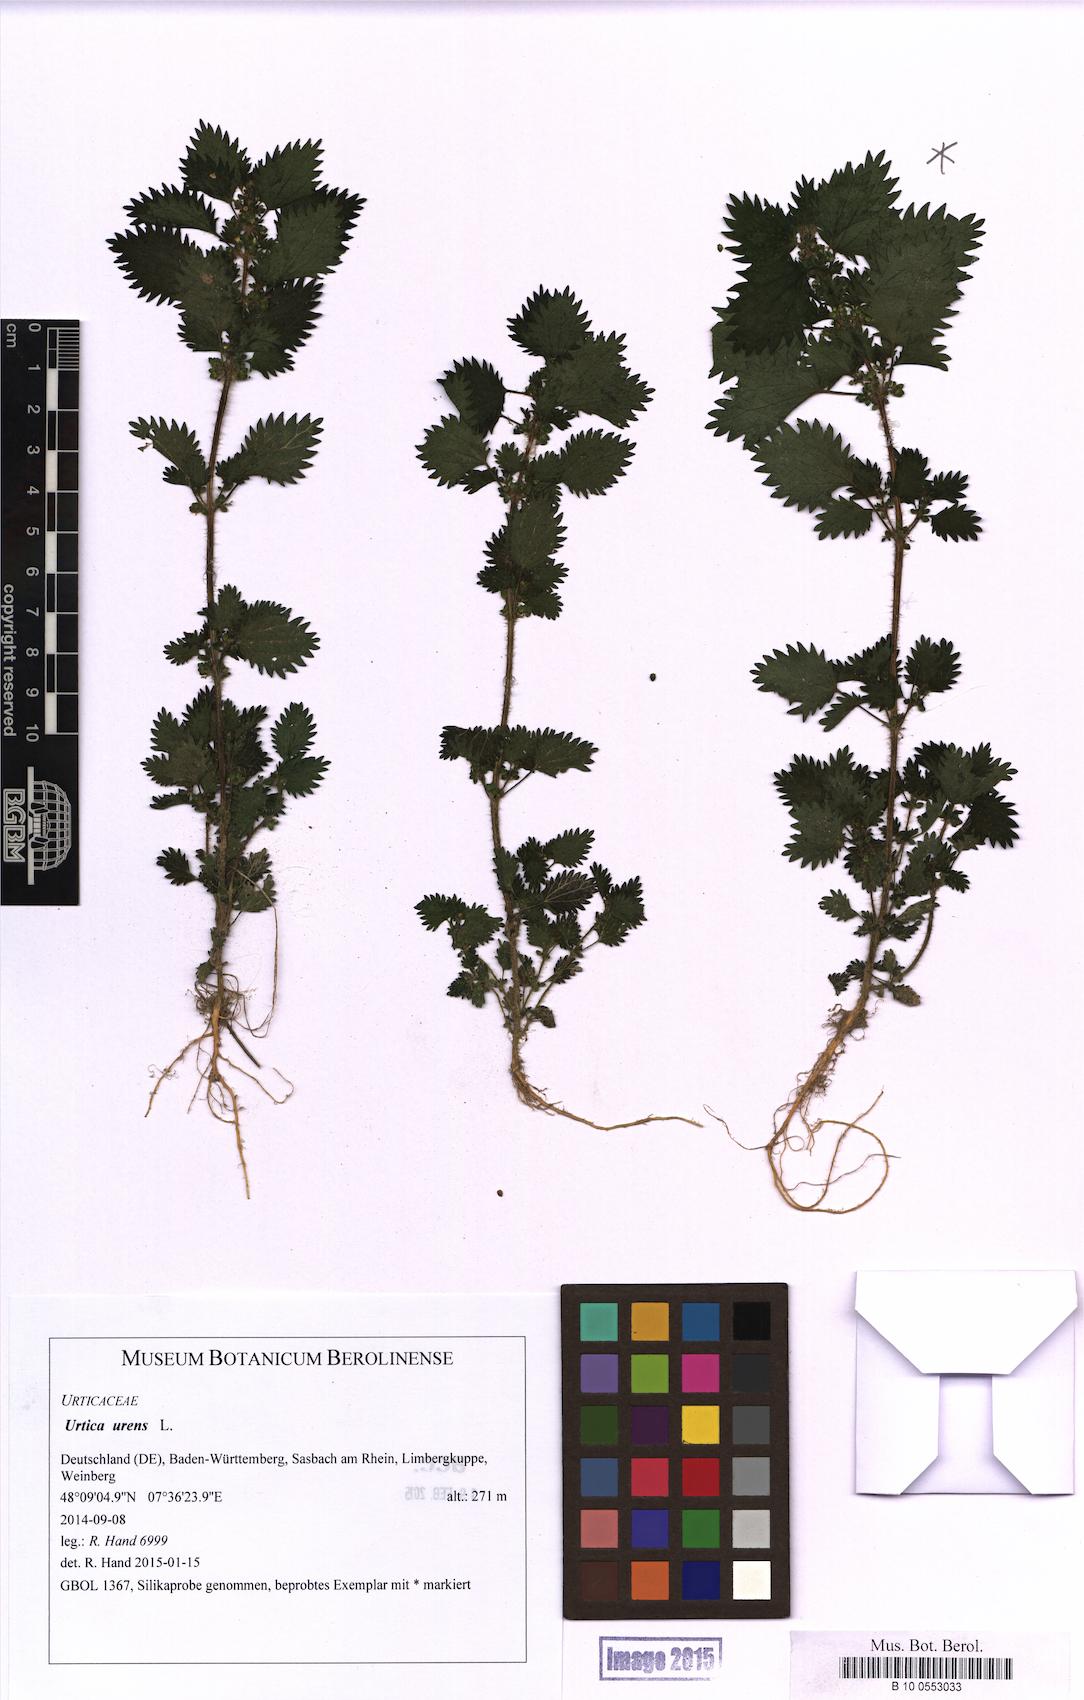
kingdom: Plantae
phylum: Tracheophyta
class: Magnoliopsida
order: Rosales
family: Urticaceae
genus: Urtica
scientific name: Urtica urens
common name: Dwarf nettle
